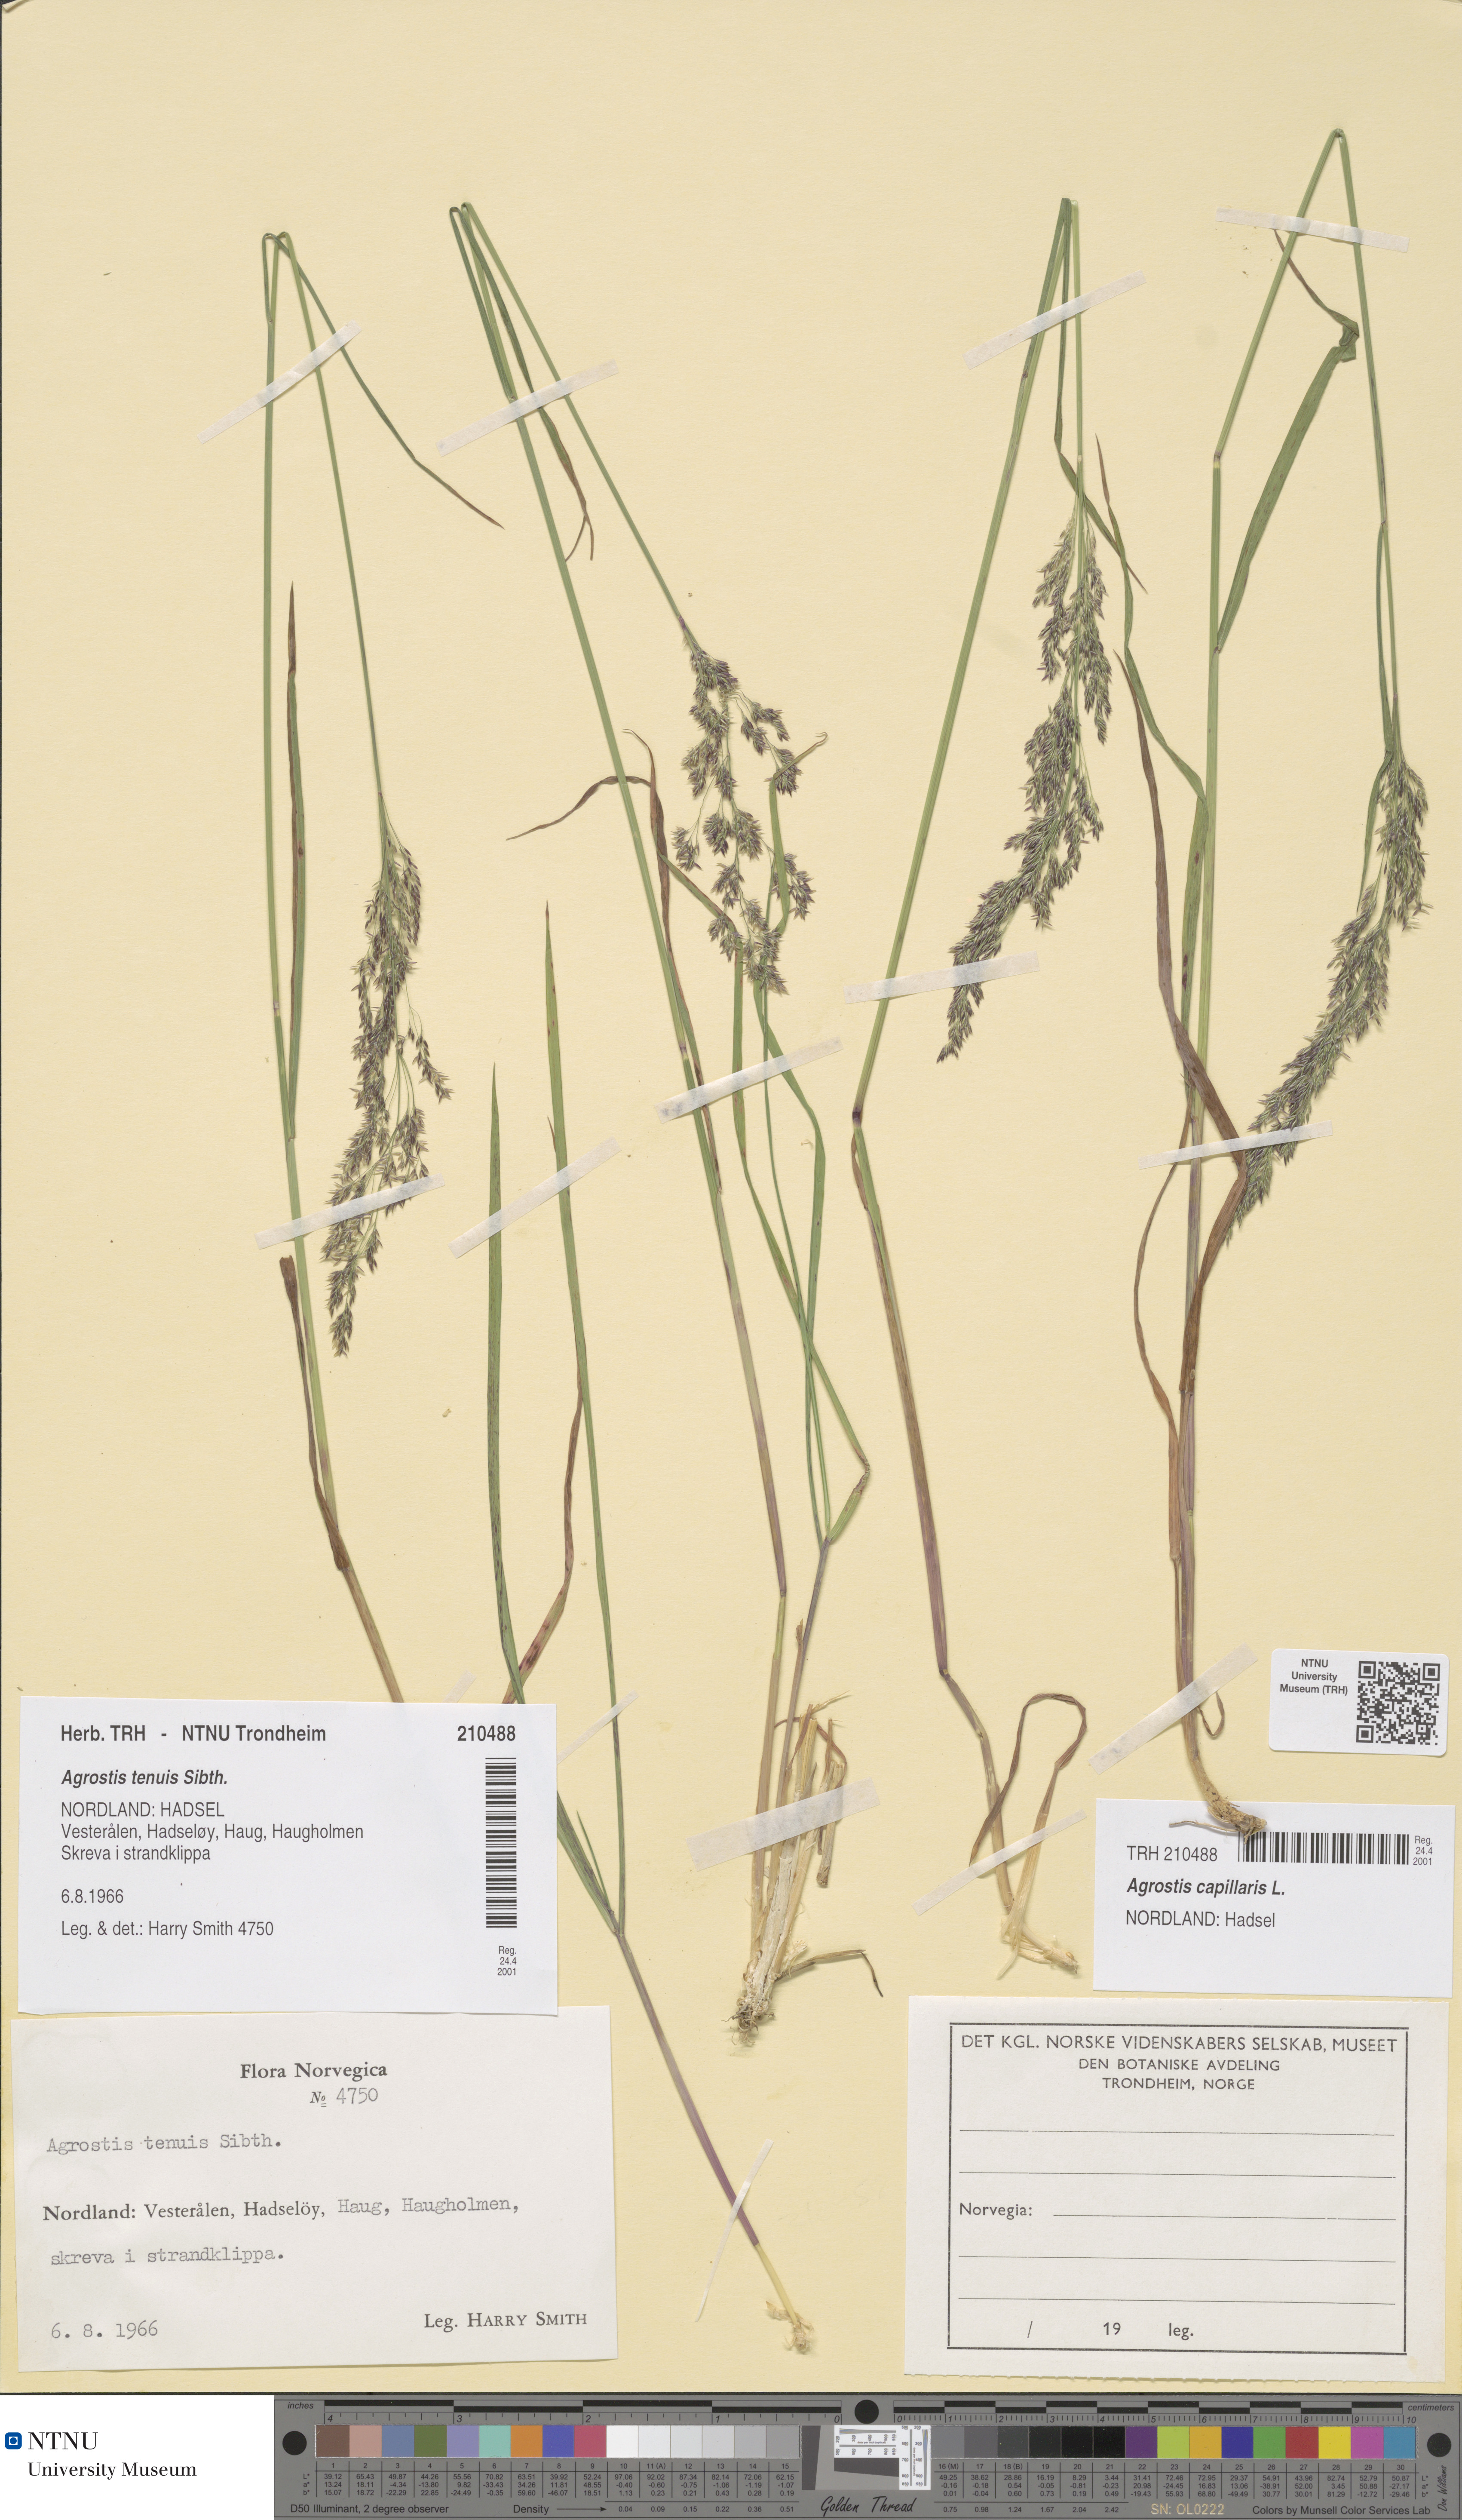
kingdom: Plantae
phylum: Tracheophyta
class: Liliopsida
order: Poales
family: Poaceae
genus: Agrostis
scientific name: Agrostis capillaris
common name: Colonial bentgrass
